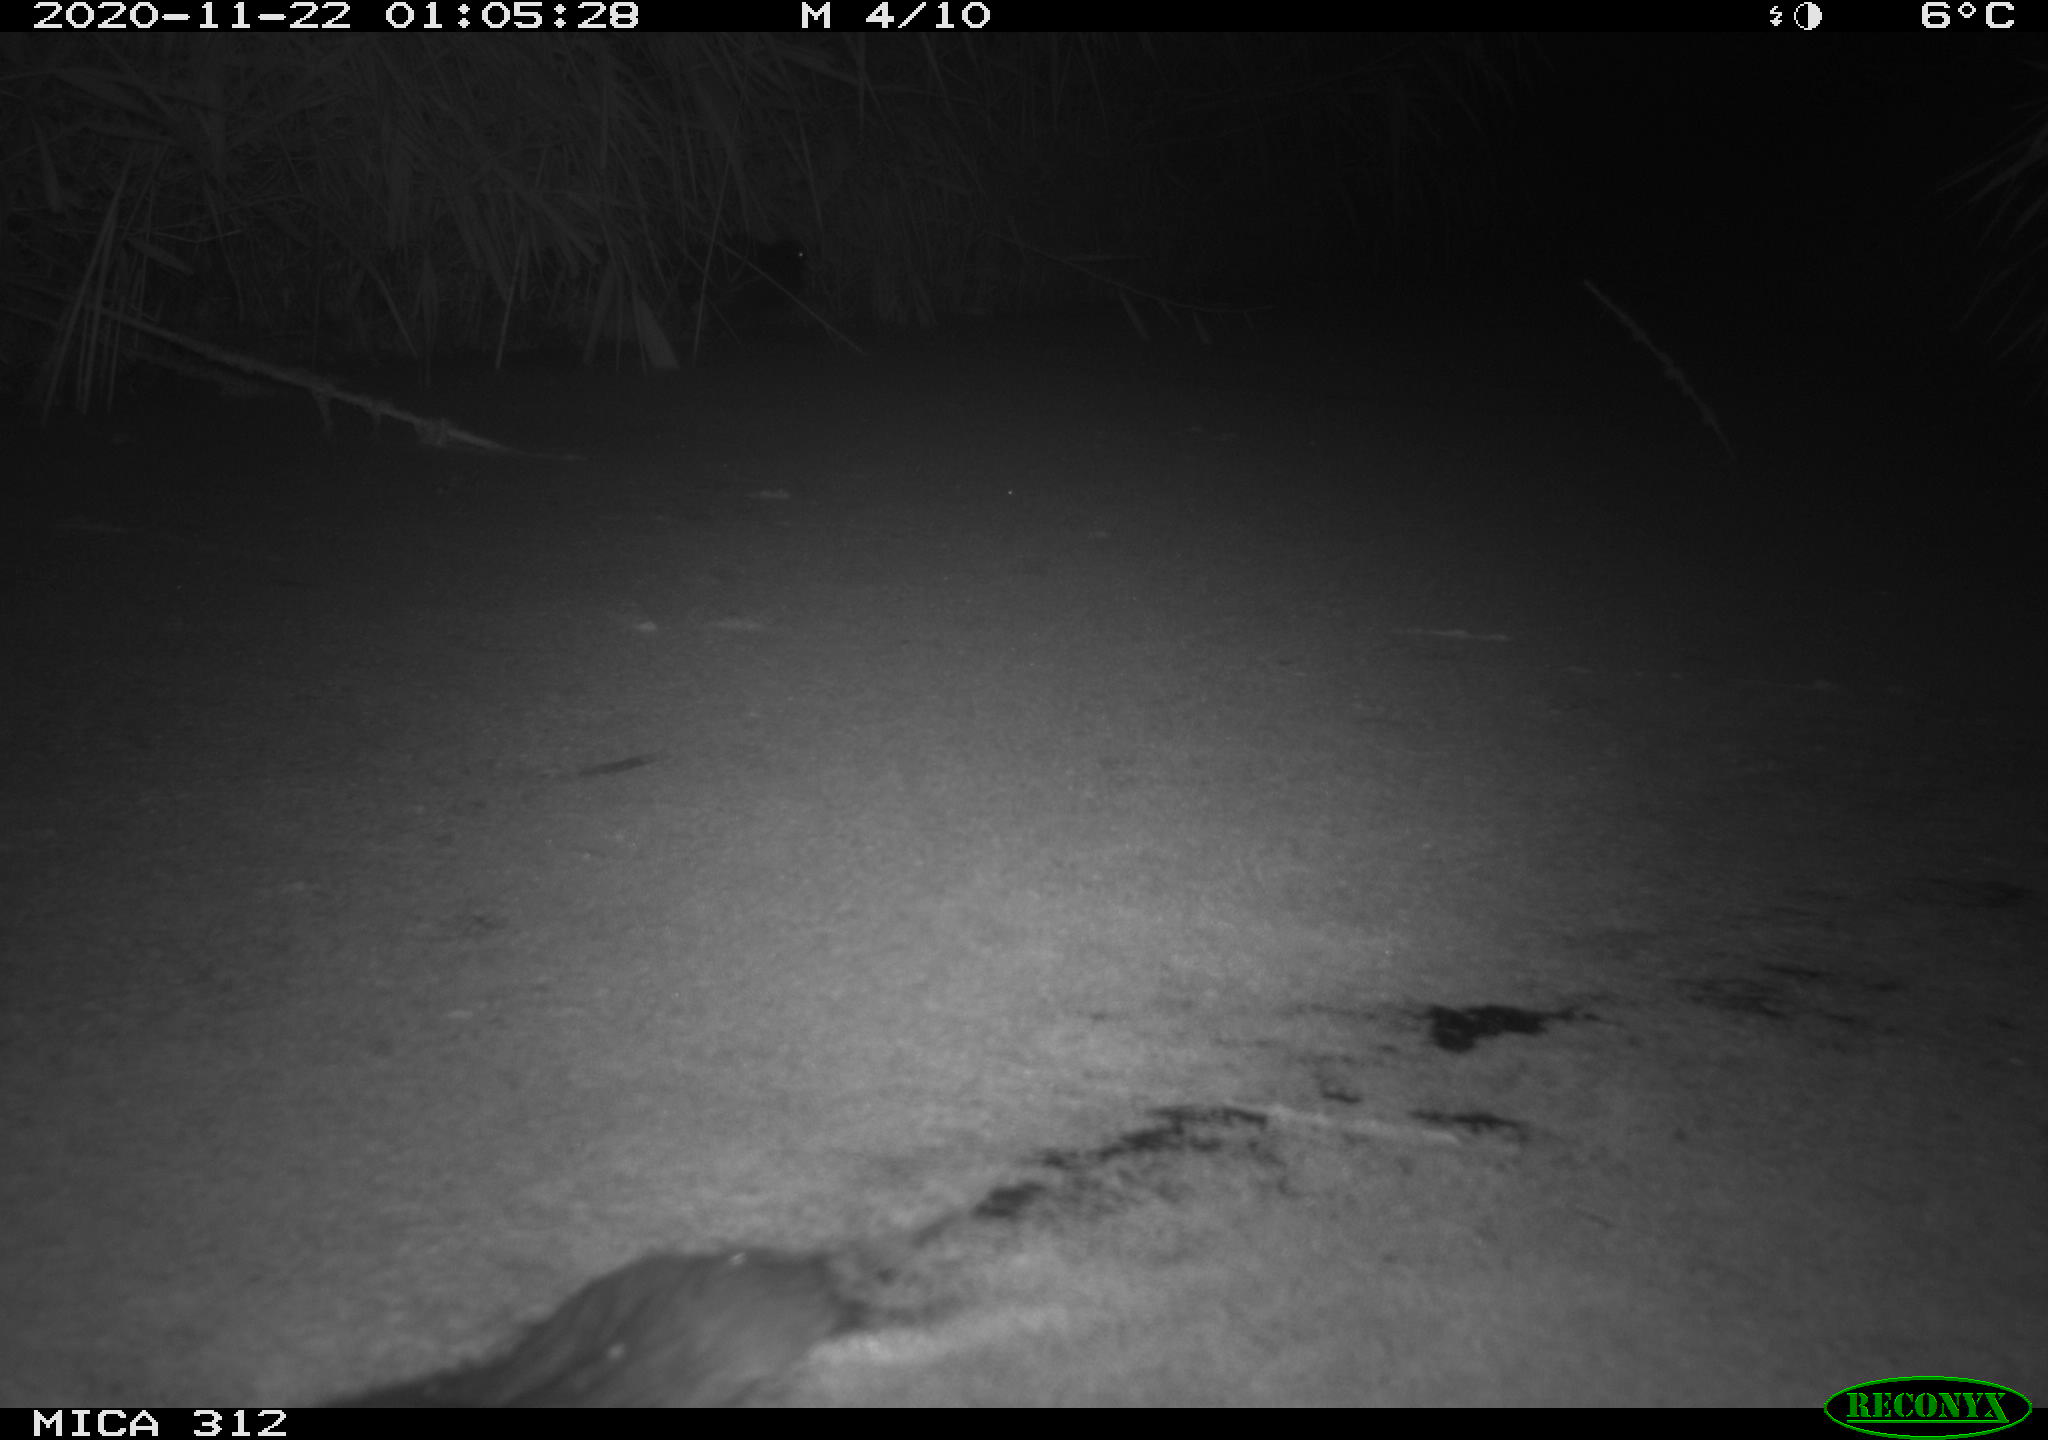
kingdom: Animalia
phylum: Chordata
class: Mammalia
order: Rodentia
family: Muridae
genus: Rattus
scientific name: Rattus norvegicus
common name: Brown rat
